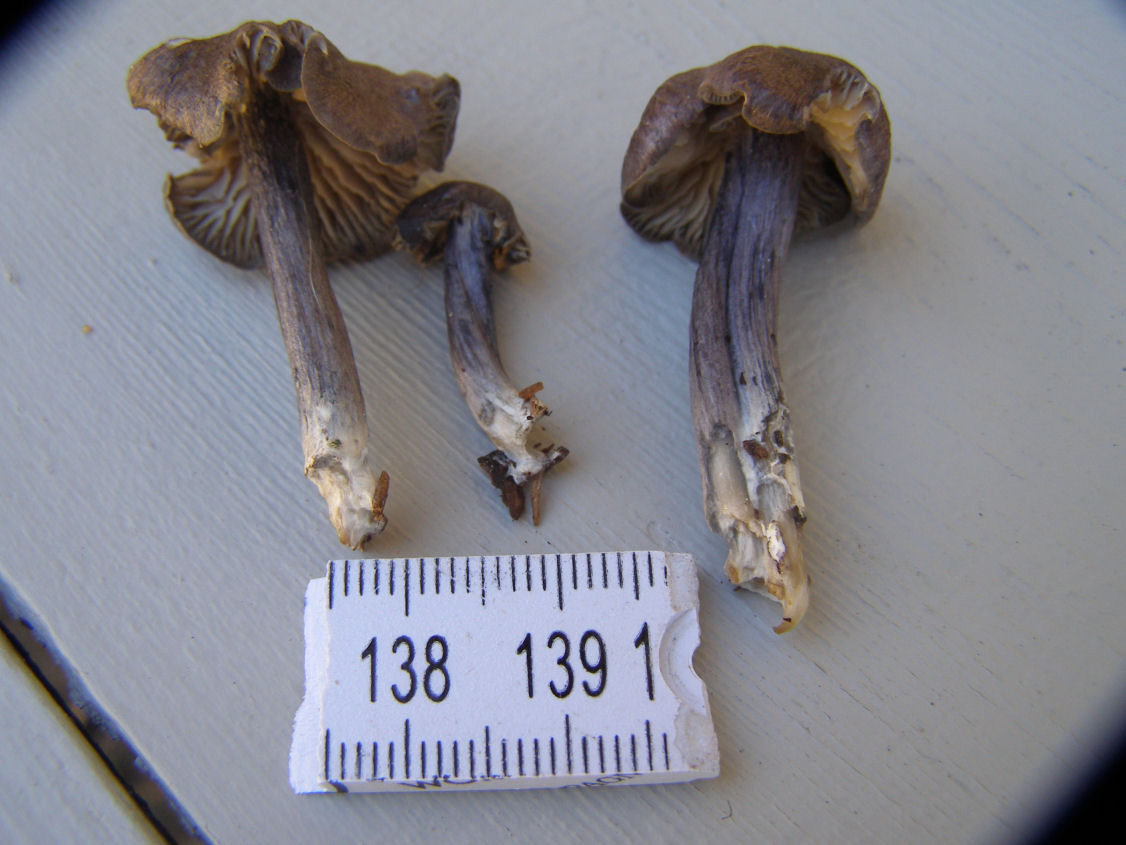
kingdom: Fungi
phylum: Basidiomycota
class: Agaricomycetes
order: Agaricales
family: Entolomataceae
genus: Entoloma
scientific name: Entoloma tjallingiorum
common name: prægtig rødblad
